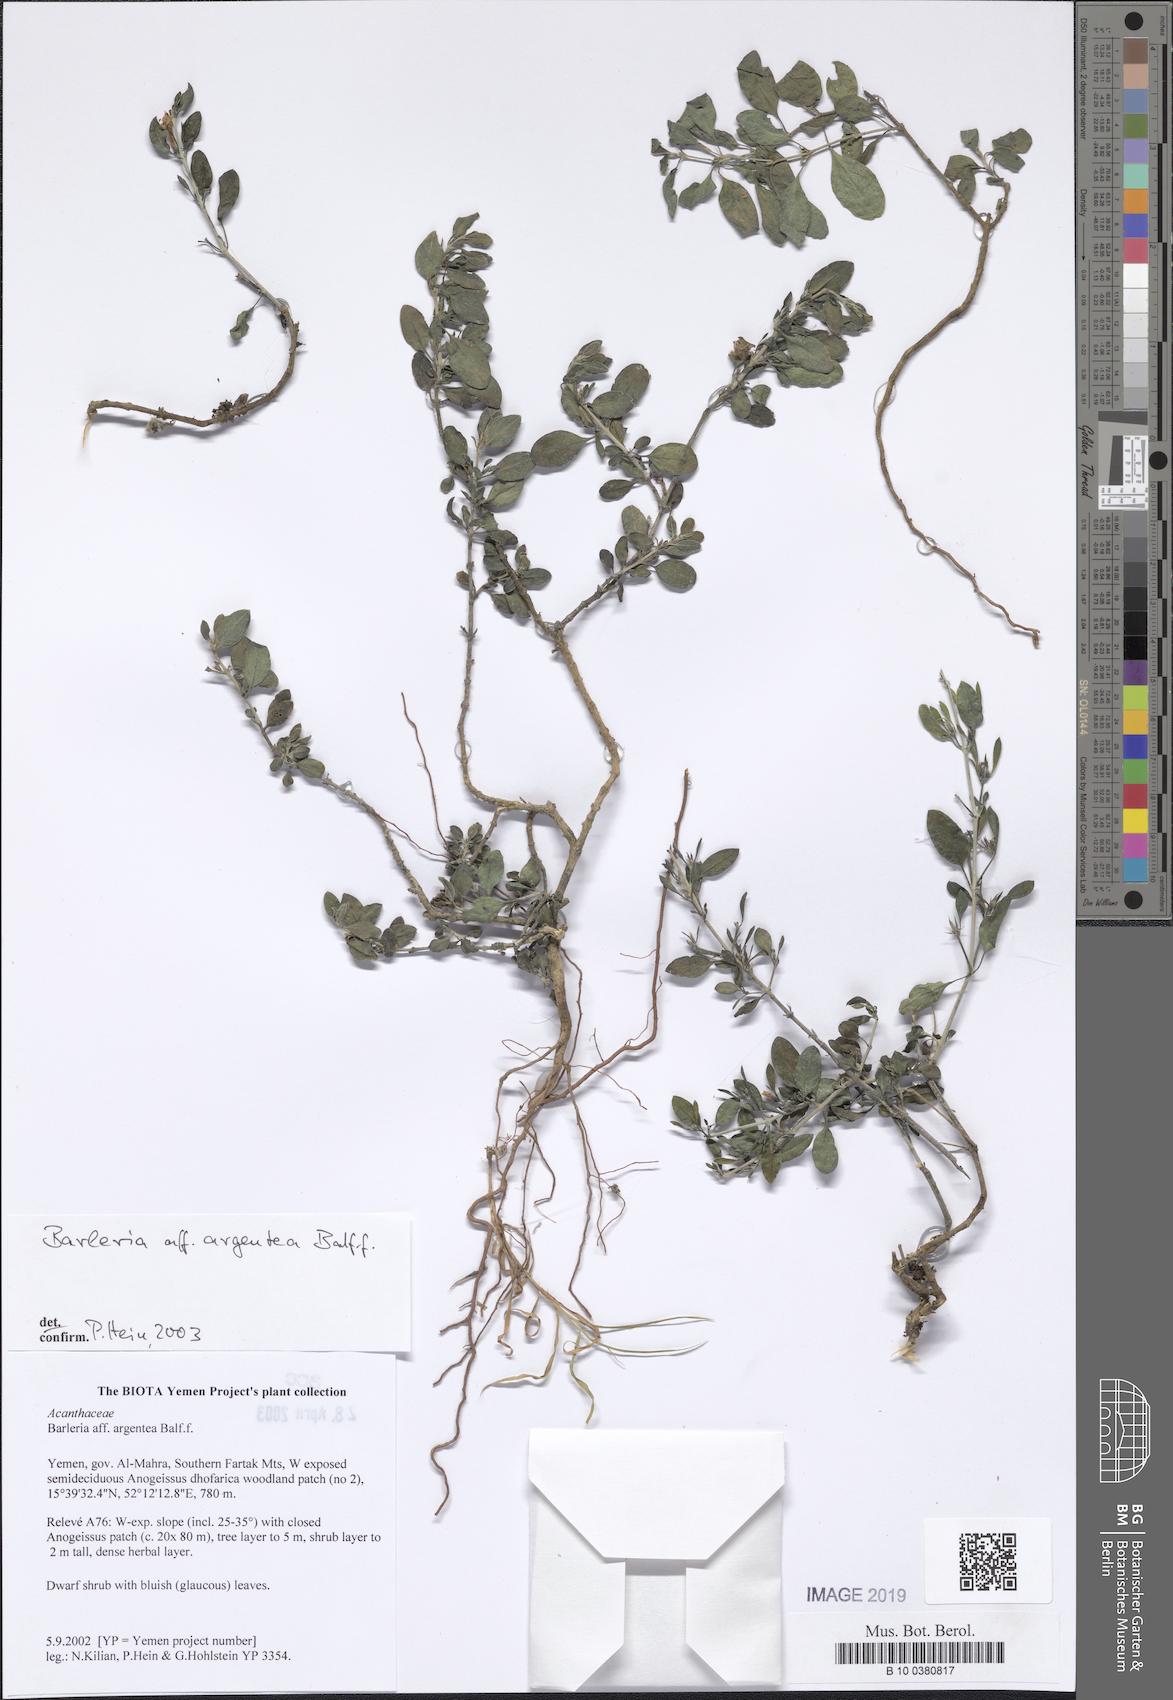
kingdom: Plantae
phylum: Tracheophyta
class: Magnoliopsida
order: Lamiales
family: Acanthaceae
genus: Barleria
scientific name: Barleria argentea
